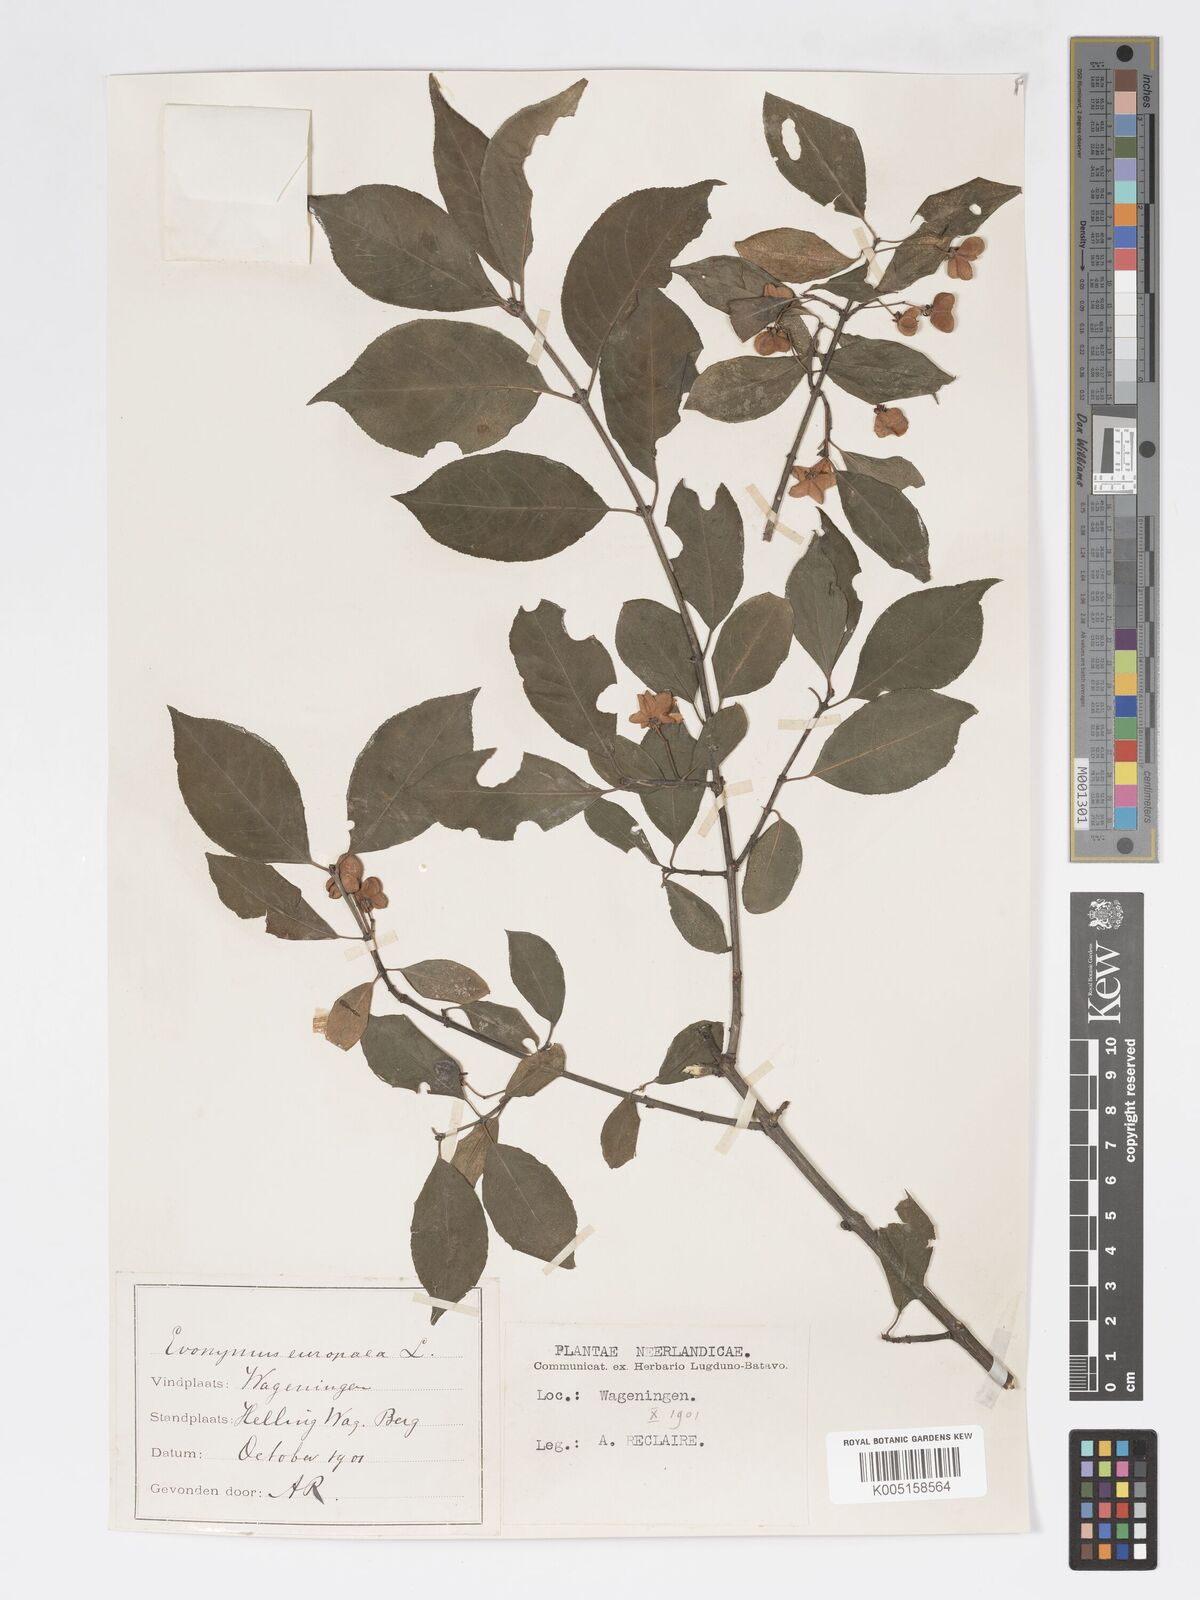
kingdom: Plantae
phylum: Tracheophyta
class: Magnoliopsida
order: Celastrales
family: Celastraceae
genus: Euonymus
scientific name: Euonymus europaeus
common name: Spindle
